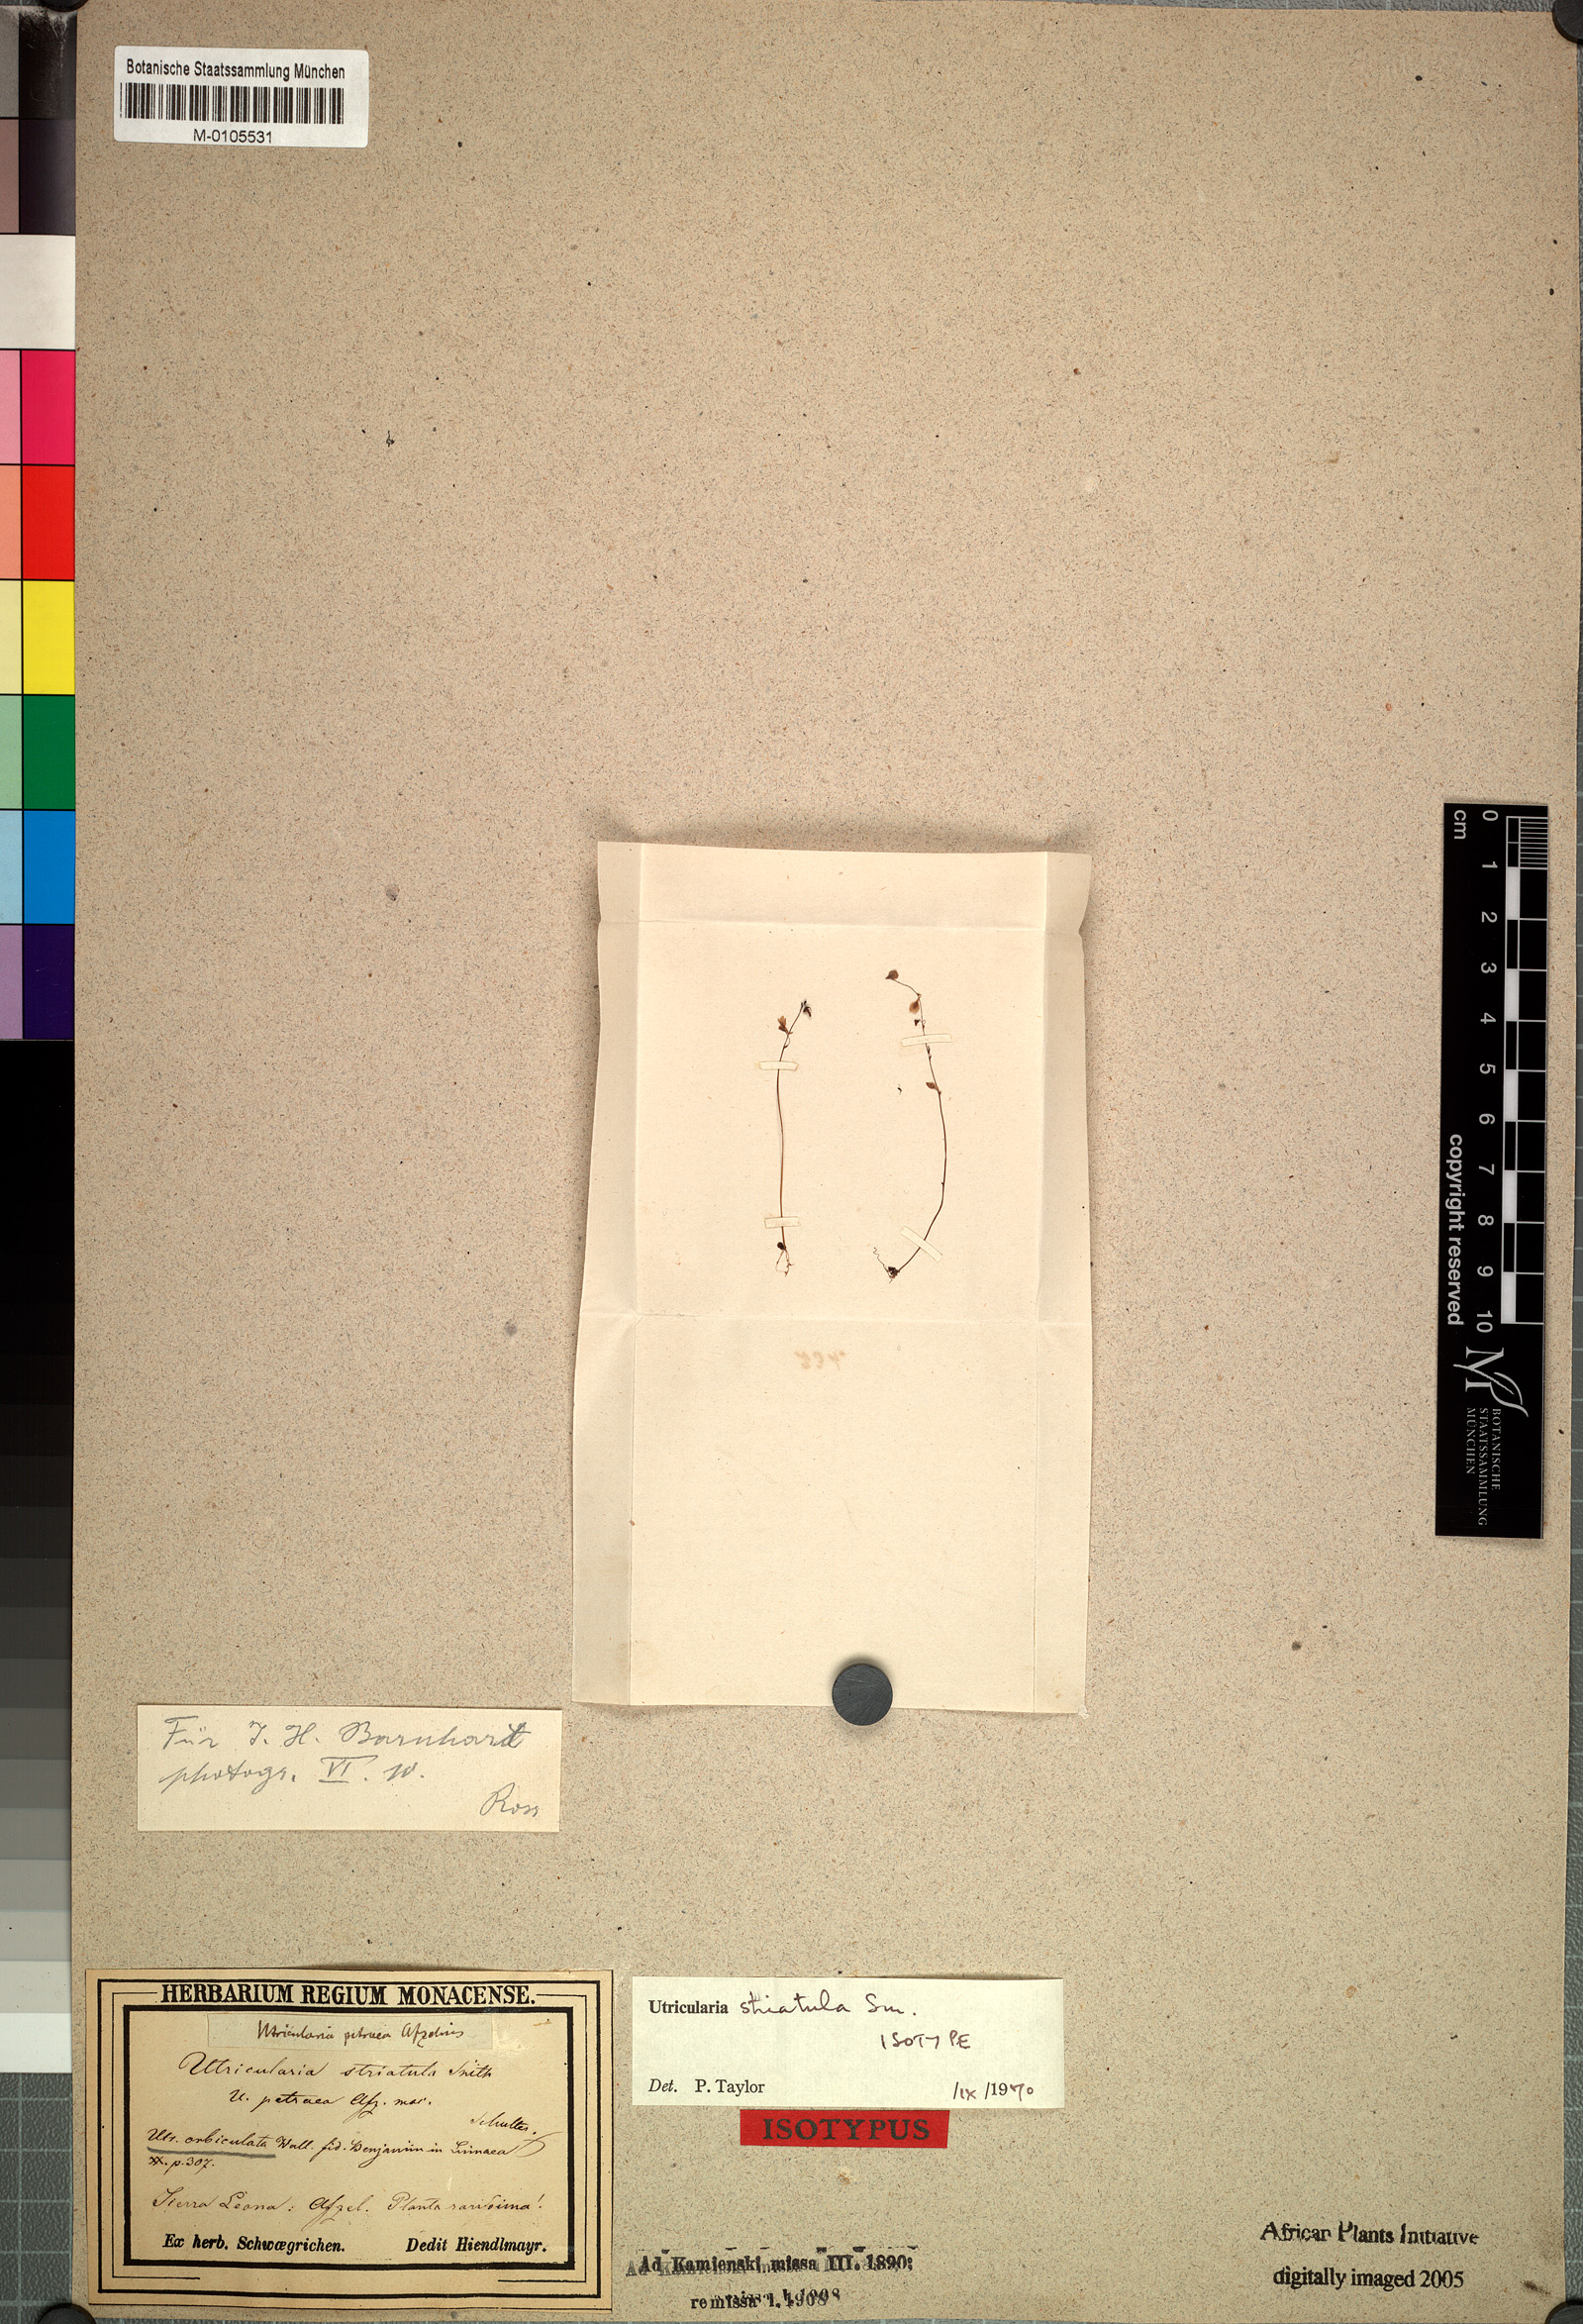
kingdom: Plantae
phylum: Tracheophyta
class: Magnoliopsida
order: Lamiales
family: Lentibulariaceae
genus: Utricularia
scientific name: Utricularia striatula
